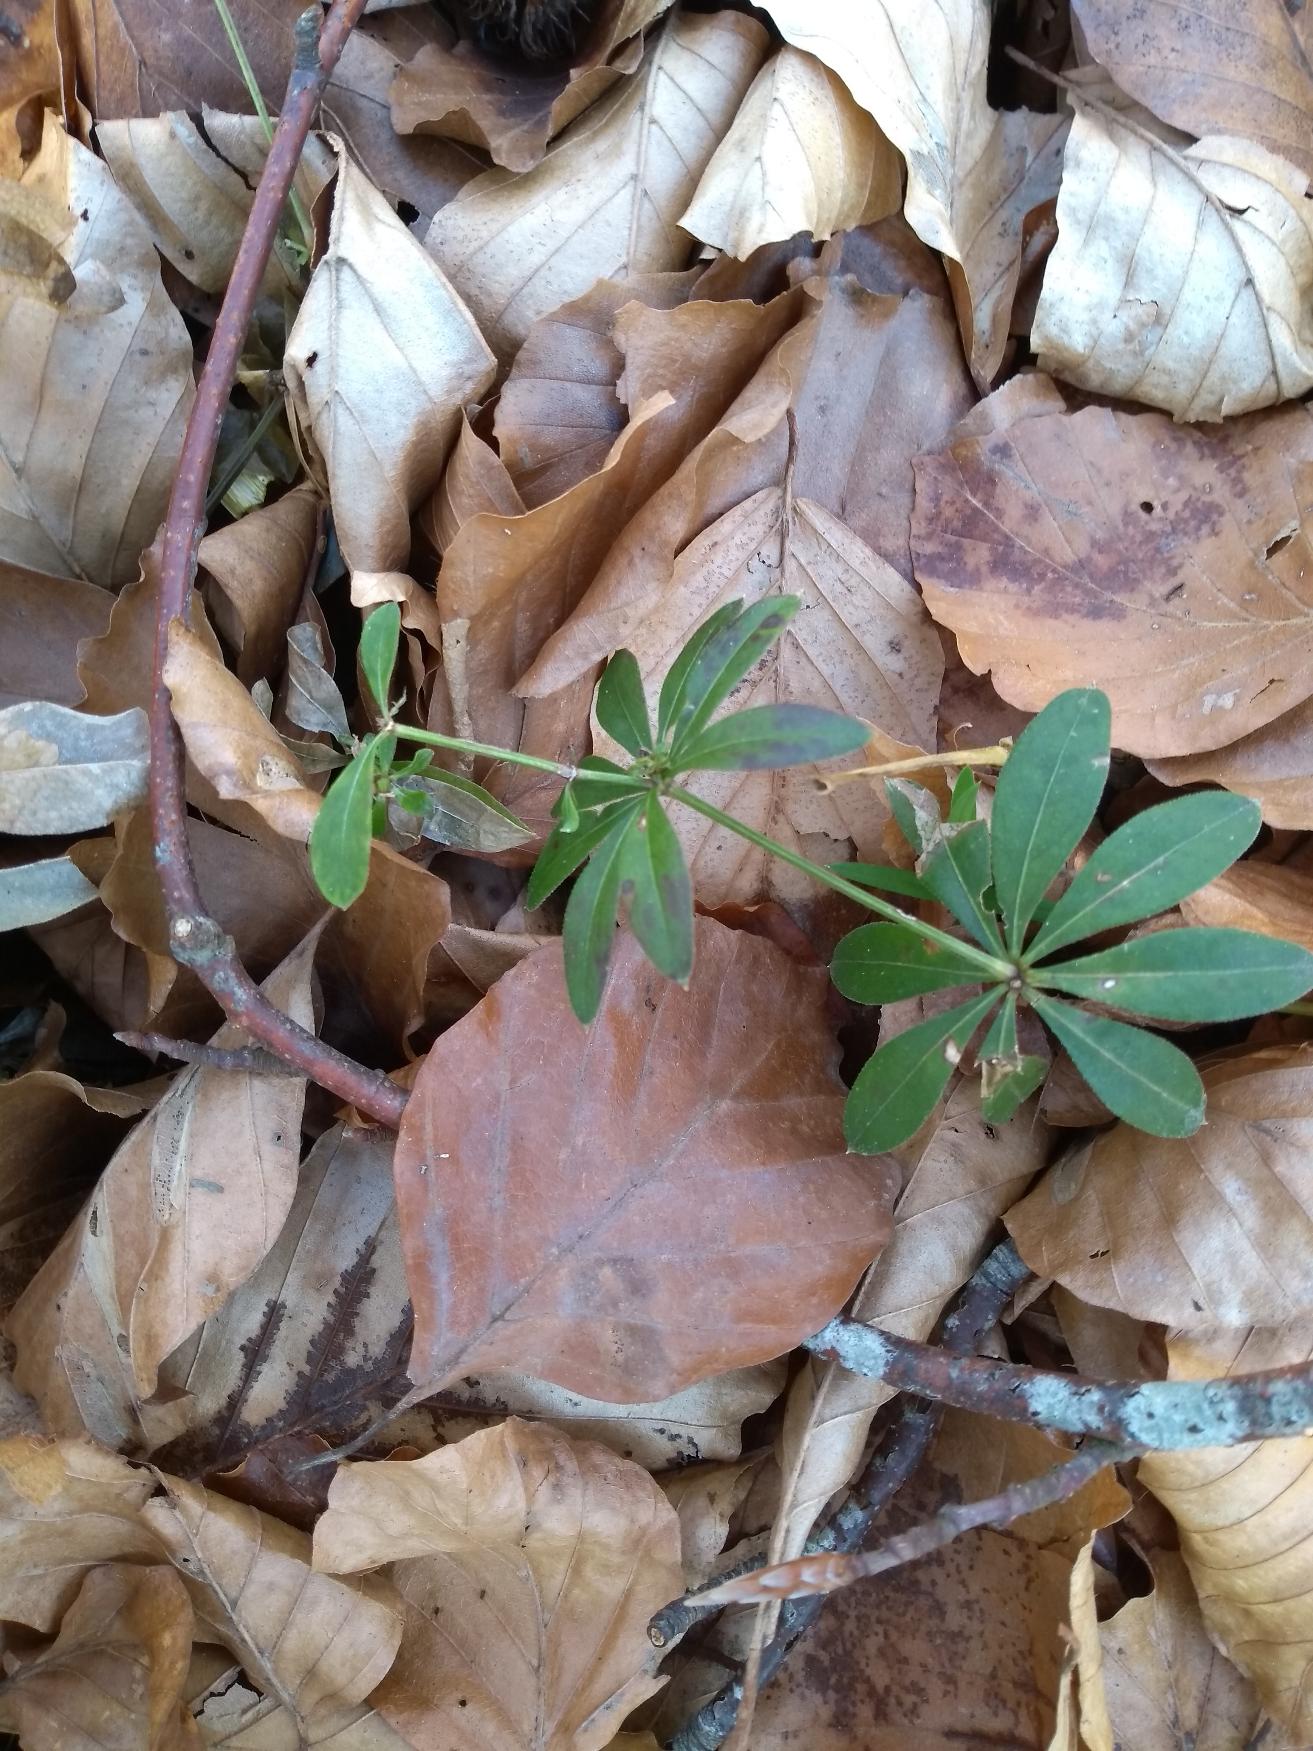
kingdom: Plantae
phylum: Tracheophyta
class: Magnoliopsida
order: Gentianales
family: Rubiaceae
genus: Galium
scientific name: Galium odoratum
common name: Skovmærke
